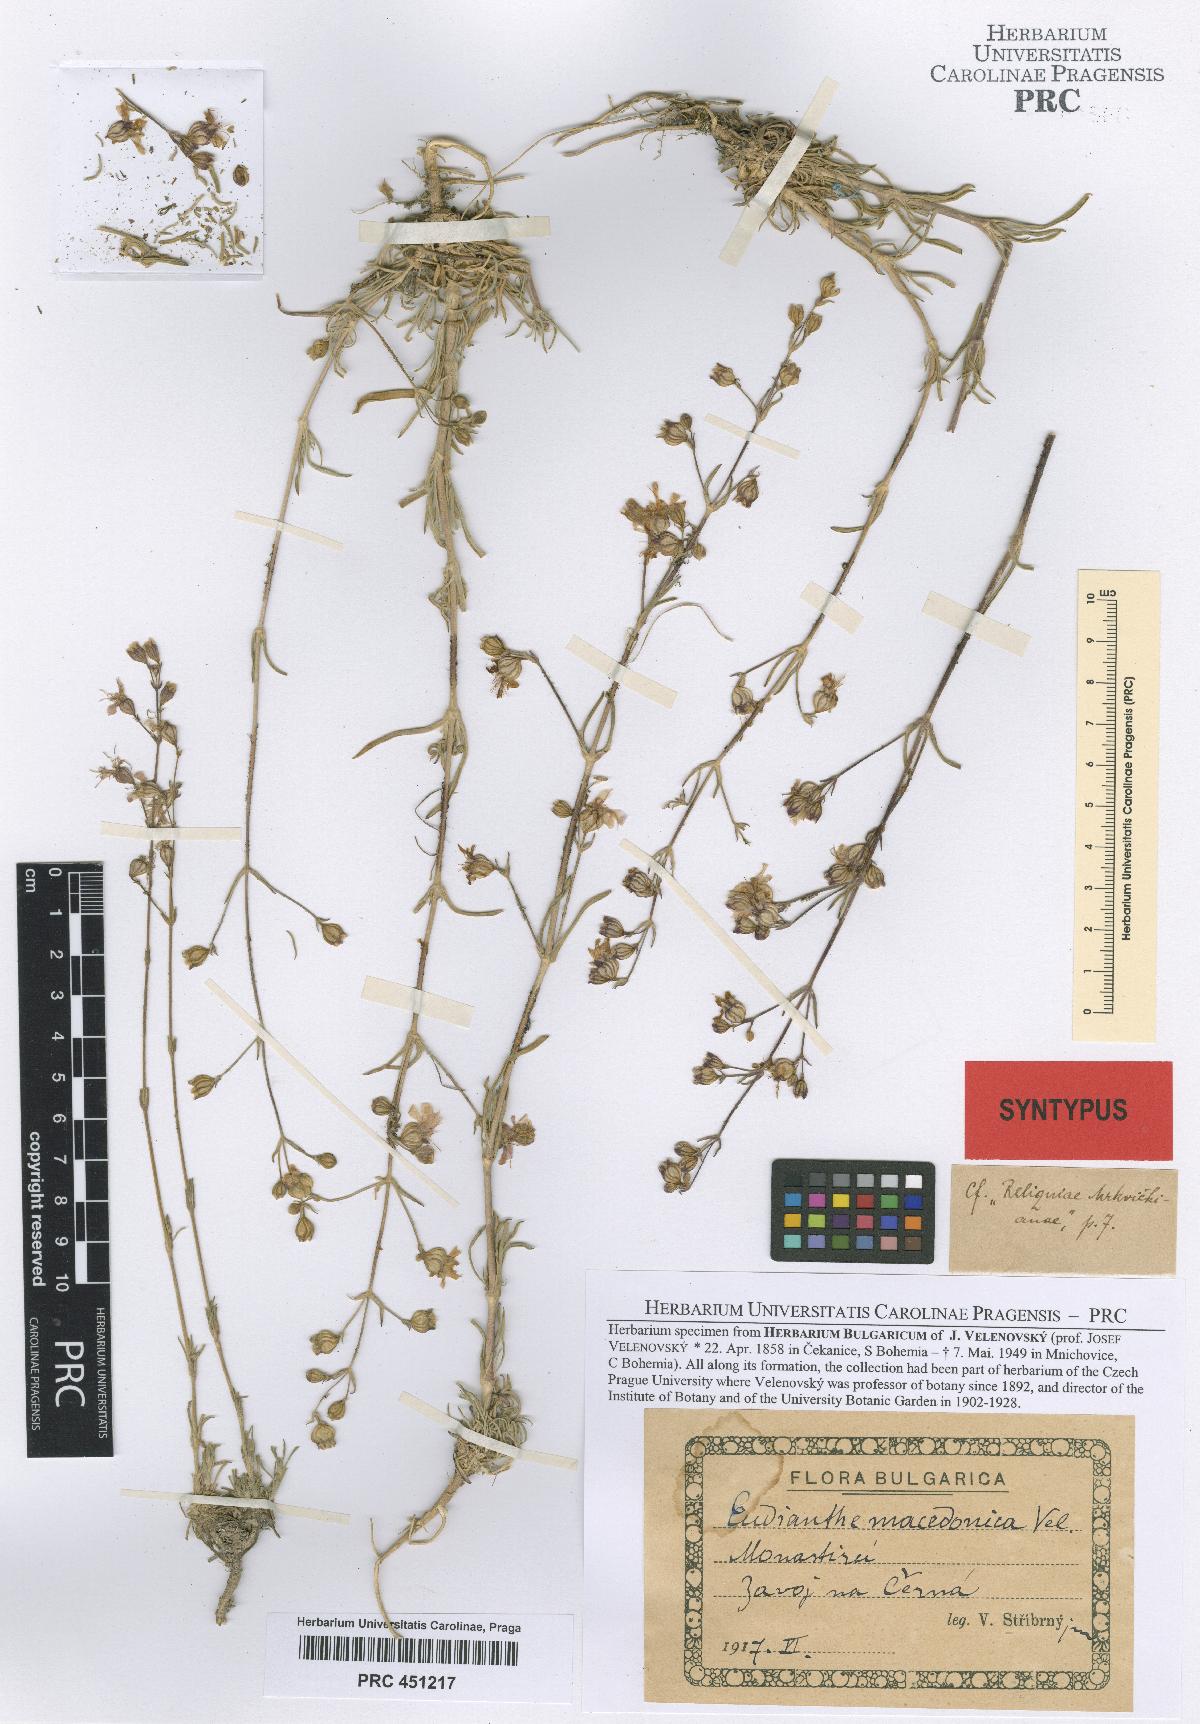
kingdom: Plantae
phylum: Tracheophyta
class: Magnoliopsida
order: Caryophyllales
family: Caryophyllaceae
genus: Silene
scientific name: Silene viscariopsis
